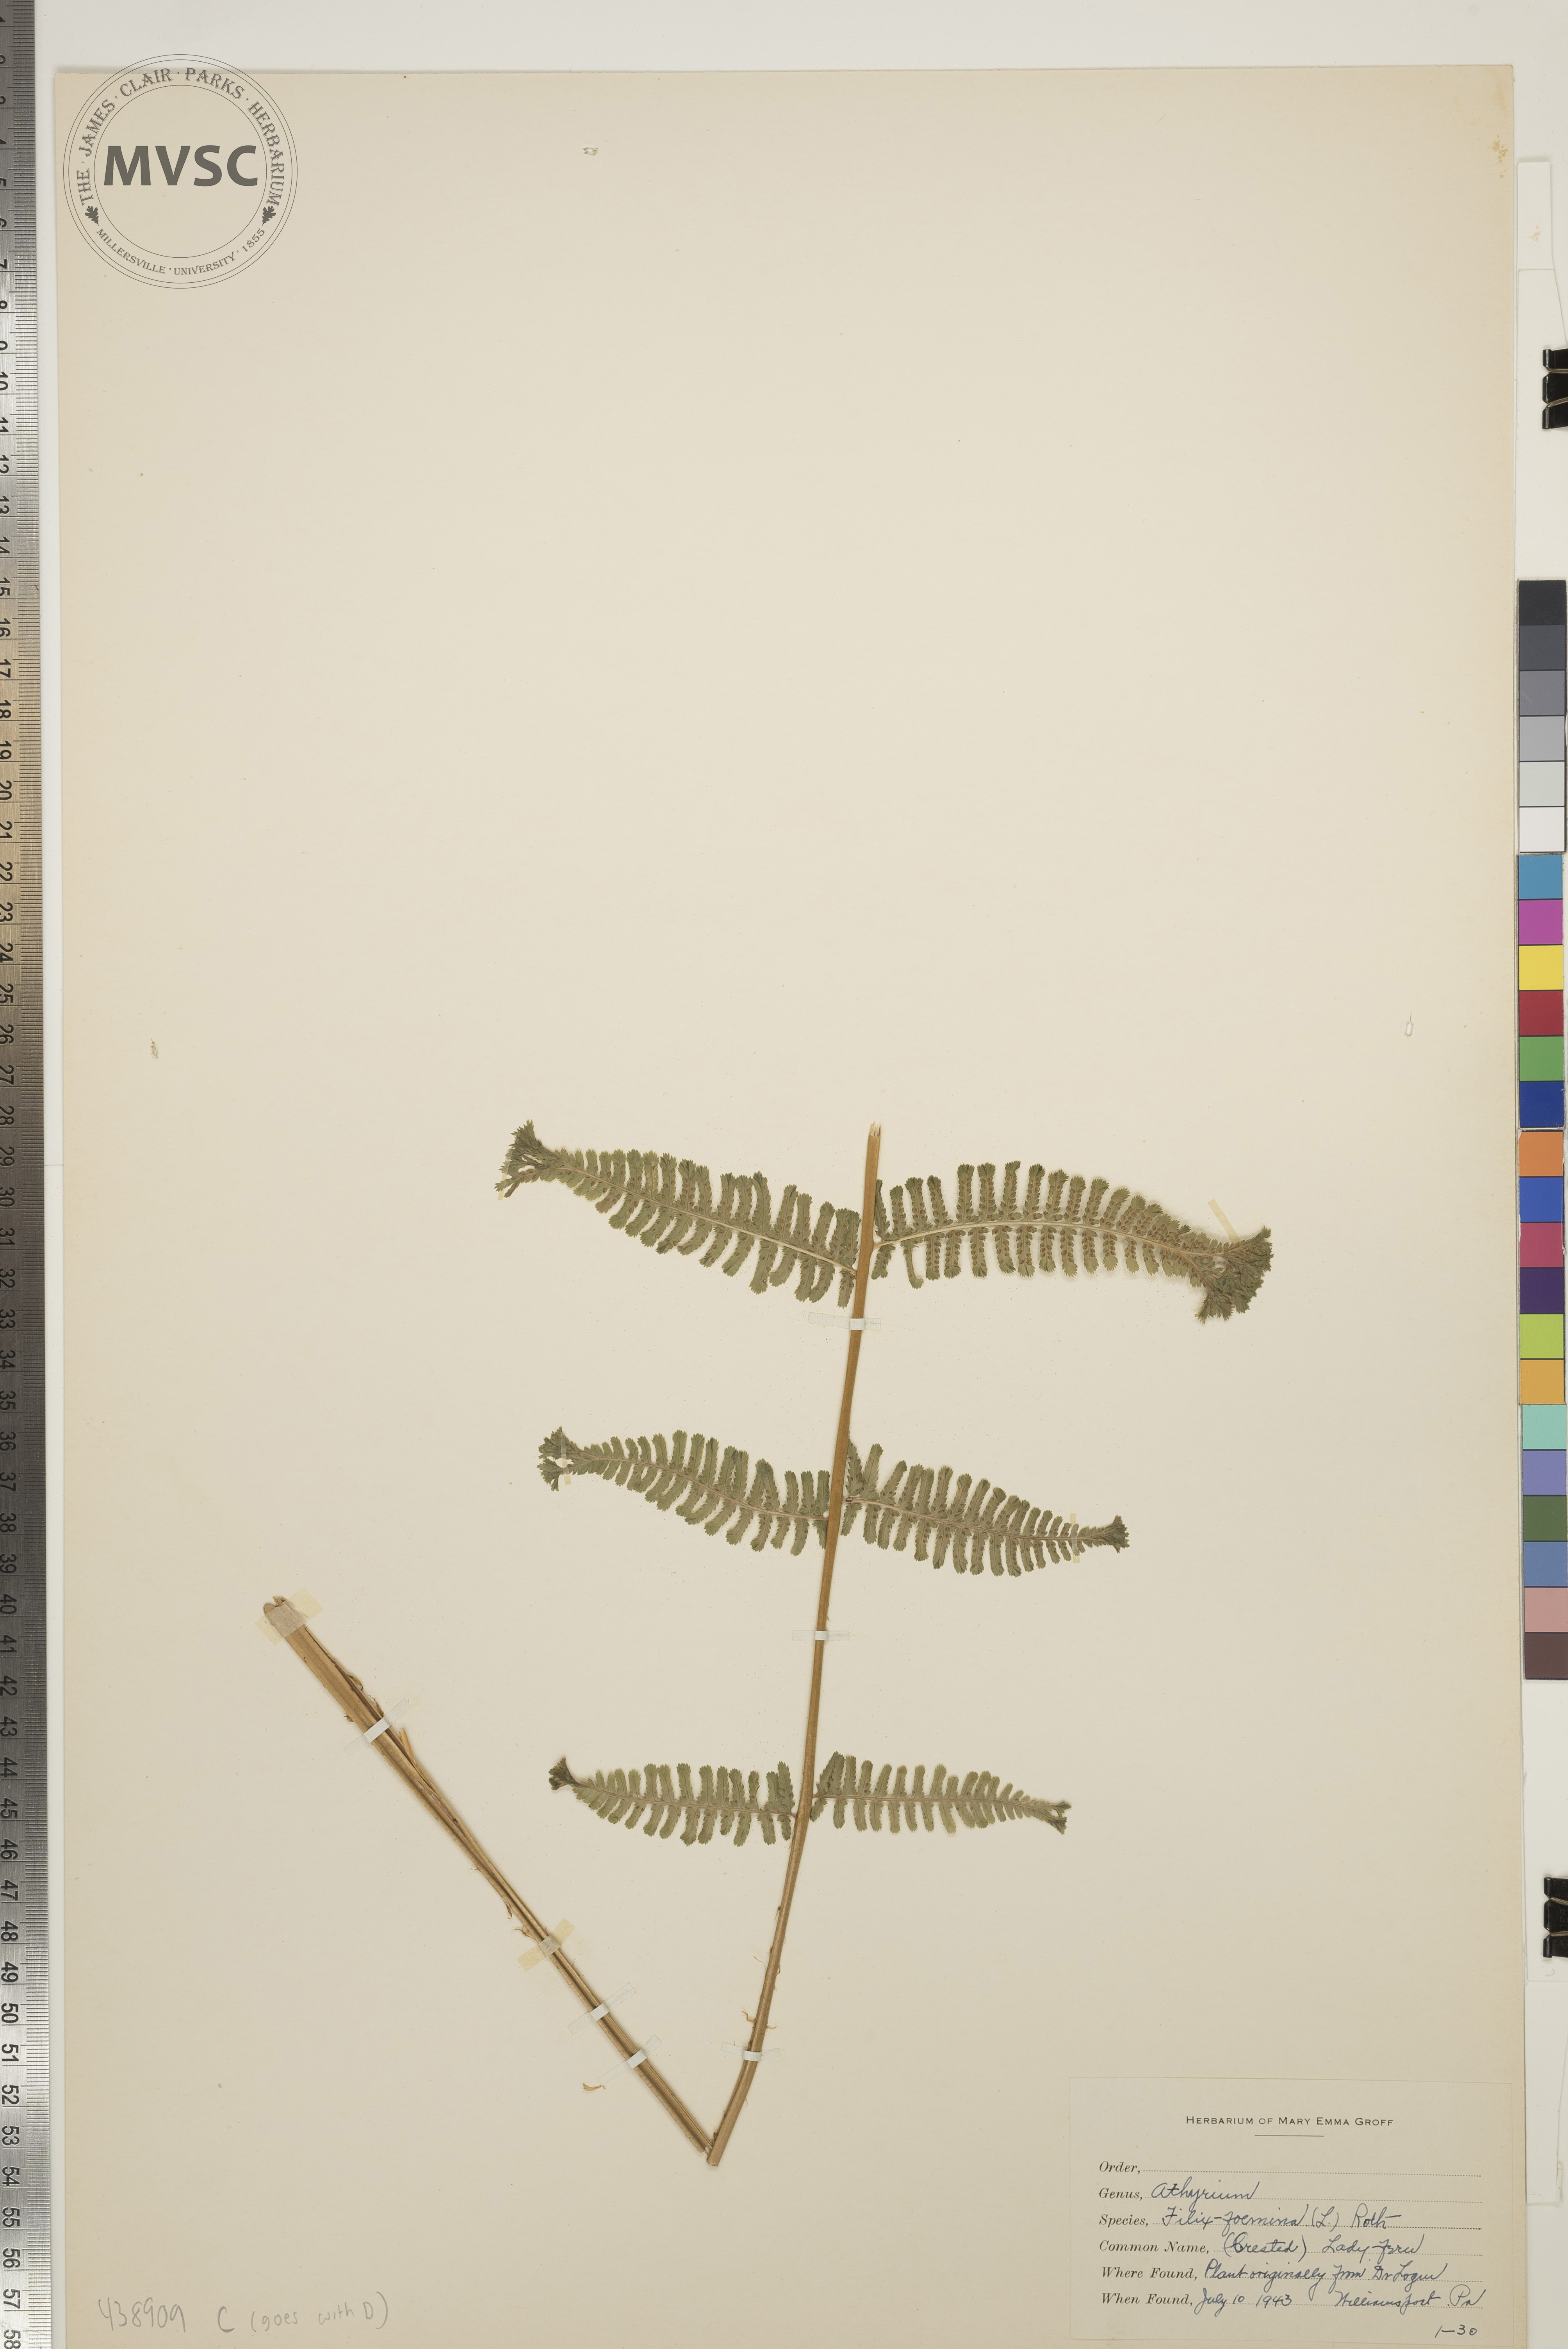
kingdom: Plantae
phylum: Tracheophyta
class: Polypodiopsida
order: Polypodiales
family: Athyriaceae
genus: Athyrium
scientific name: Athyrium filix-femina
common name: Lady fern
